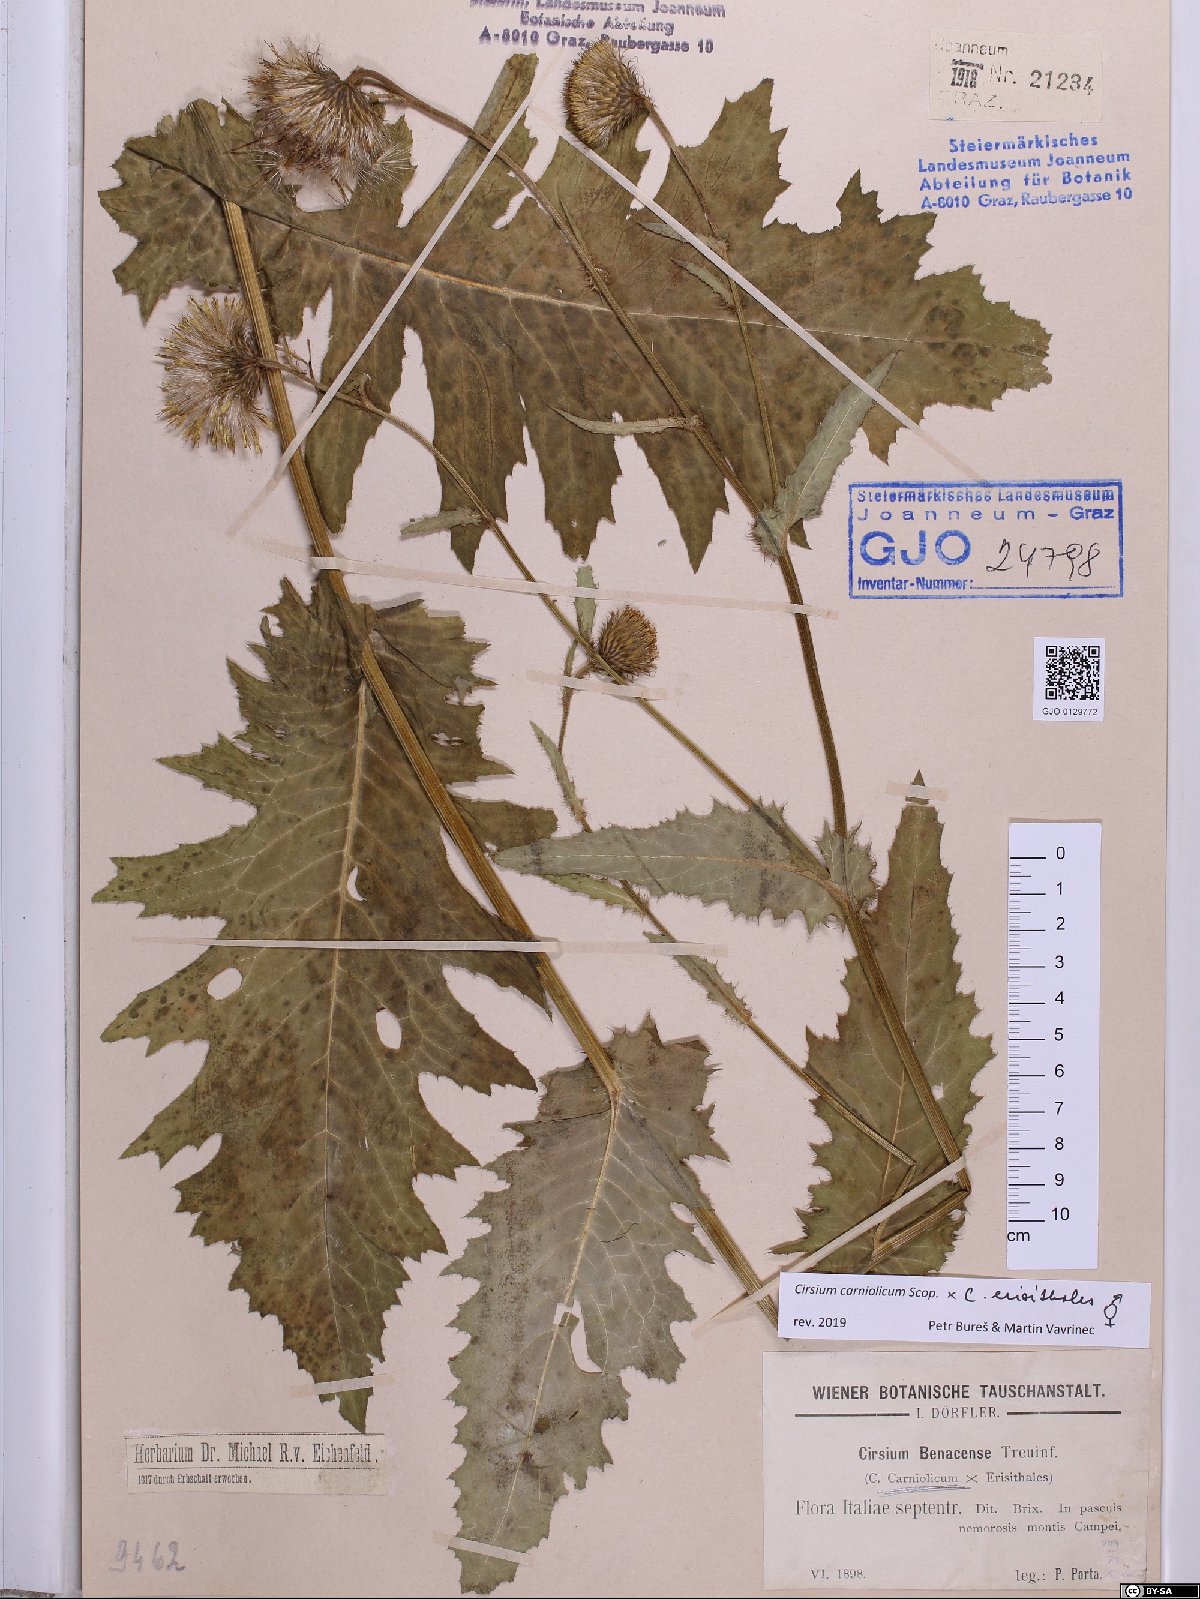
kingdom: Plantae
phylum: Tracheophyta
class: Magnoliopsida
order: Asterales
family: Asteraceae
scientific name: Asteraceae
